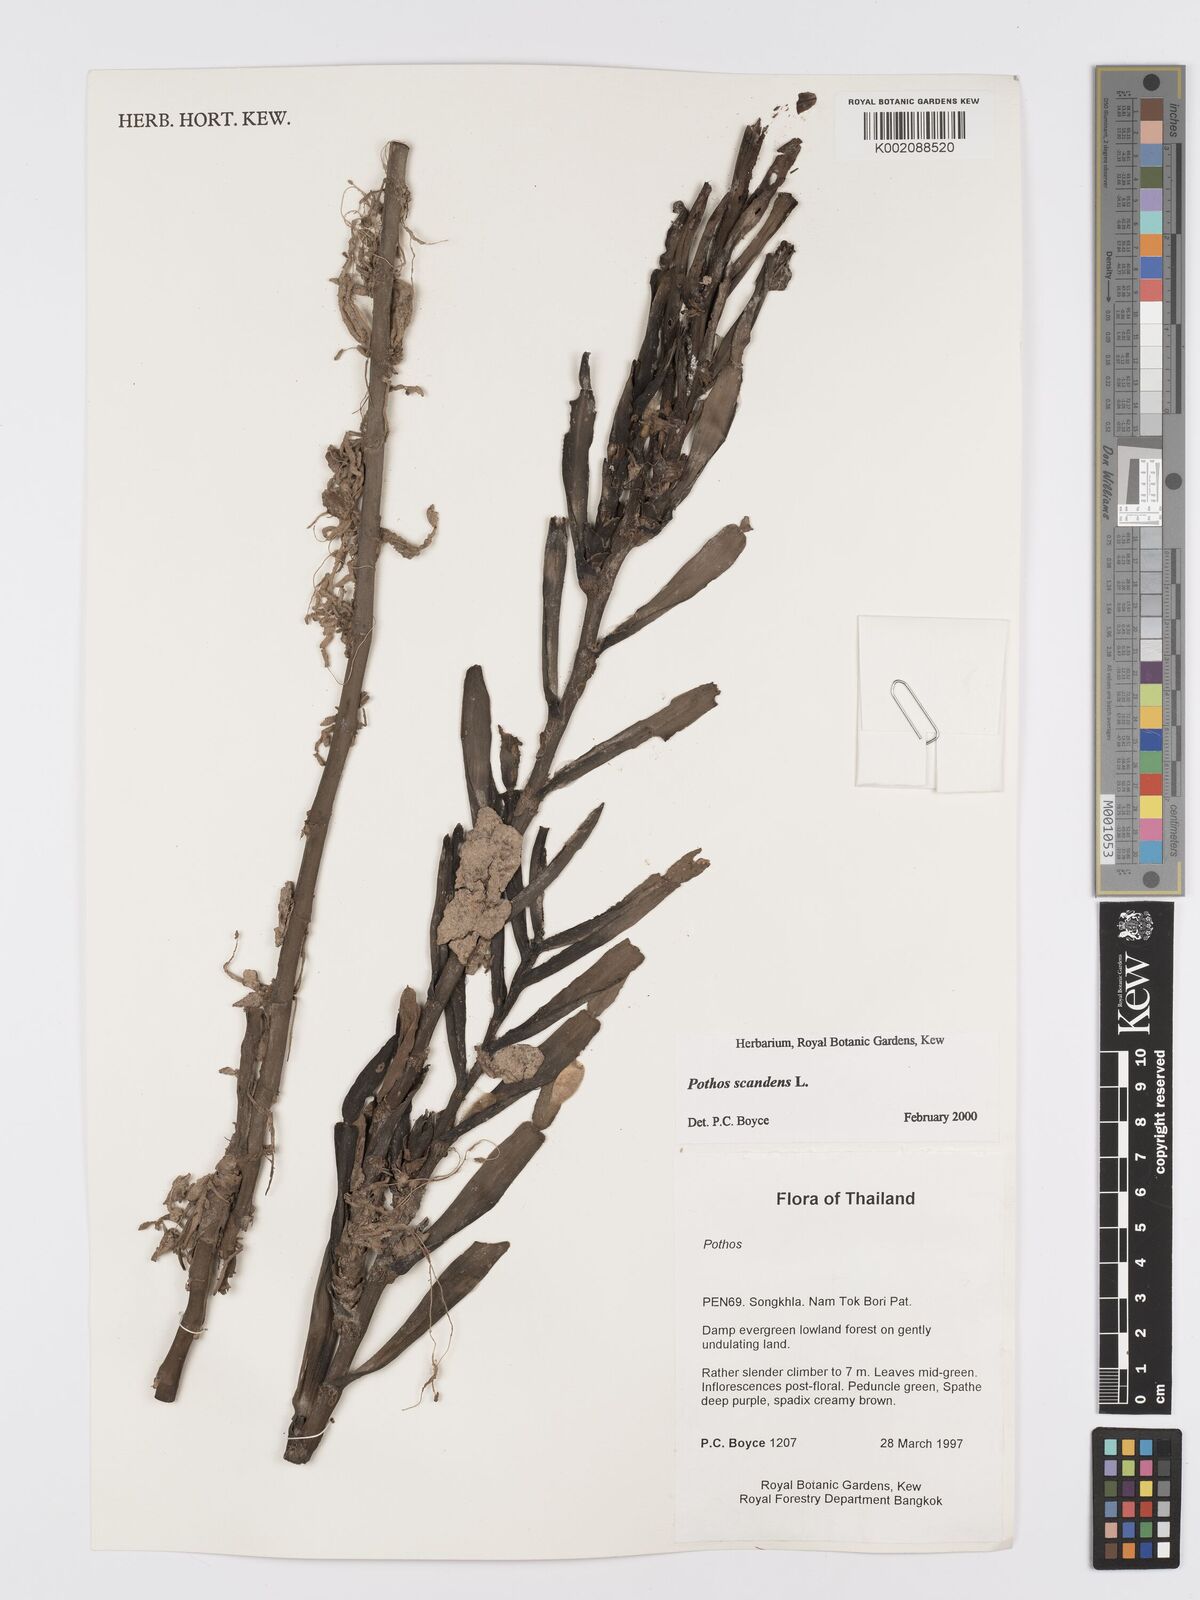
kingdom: Plantae
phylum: Tracheophyta
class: Liliopsida
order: Alismatales
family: Araceae
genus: Pothos
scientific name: Pothos scandens
